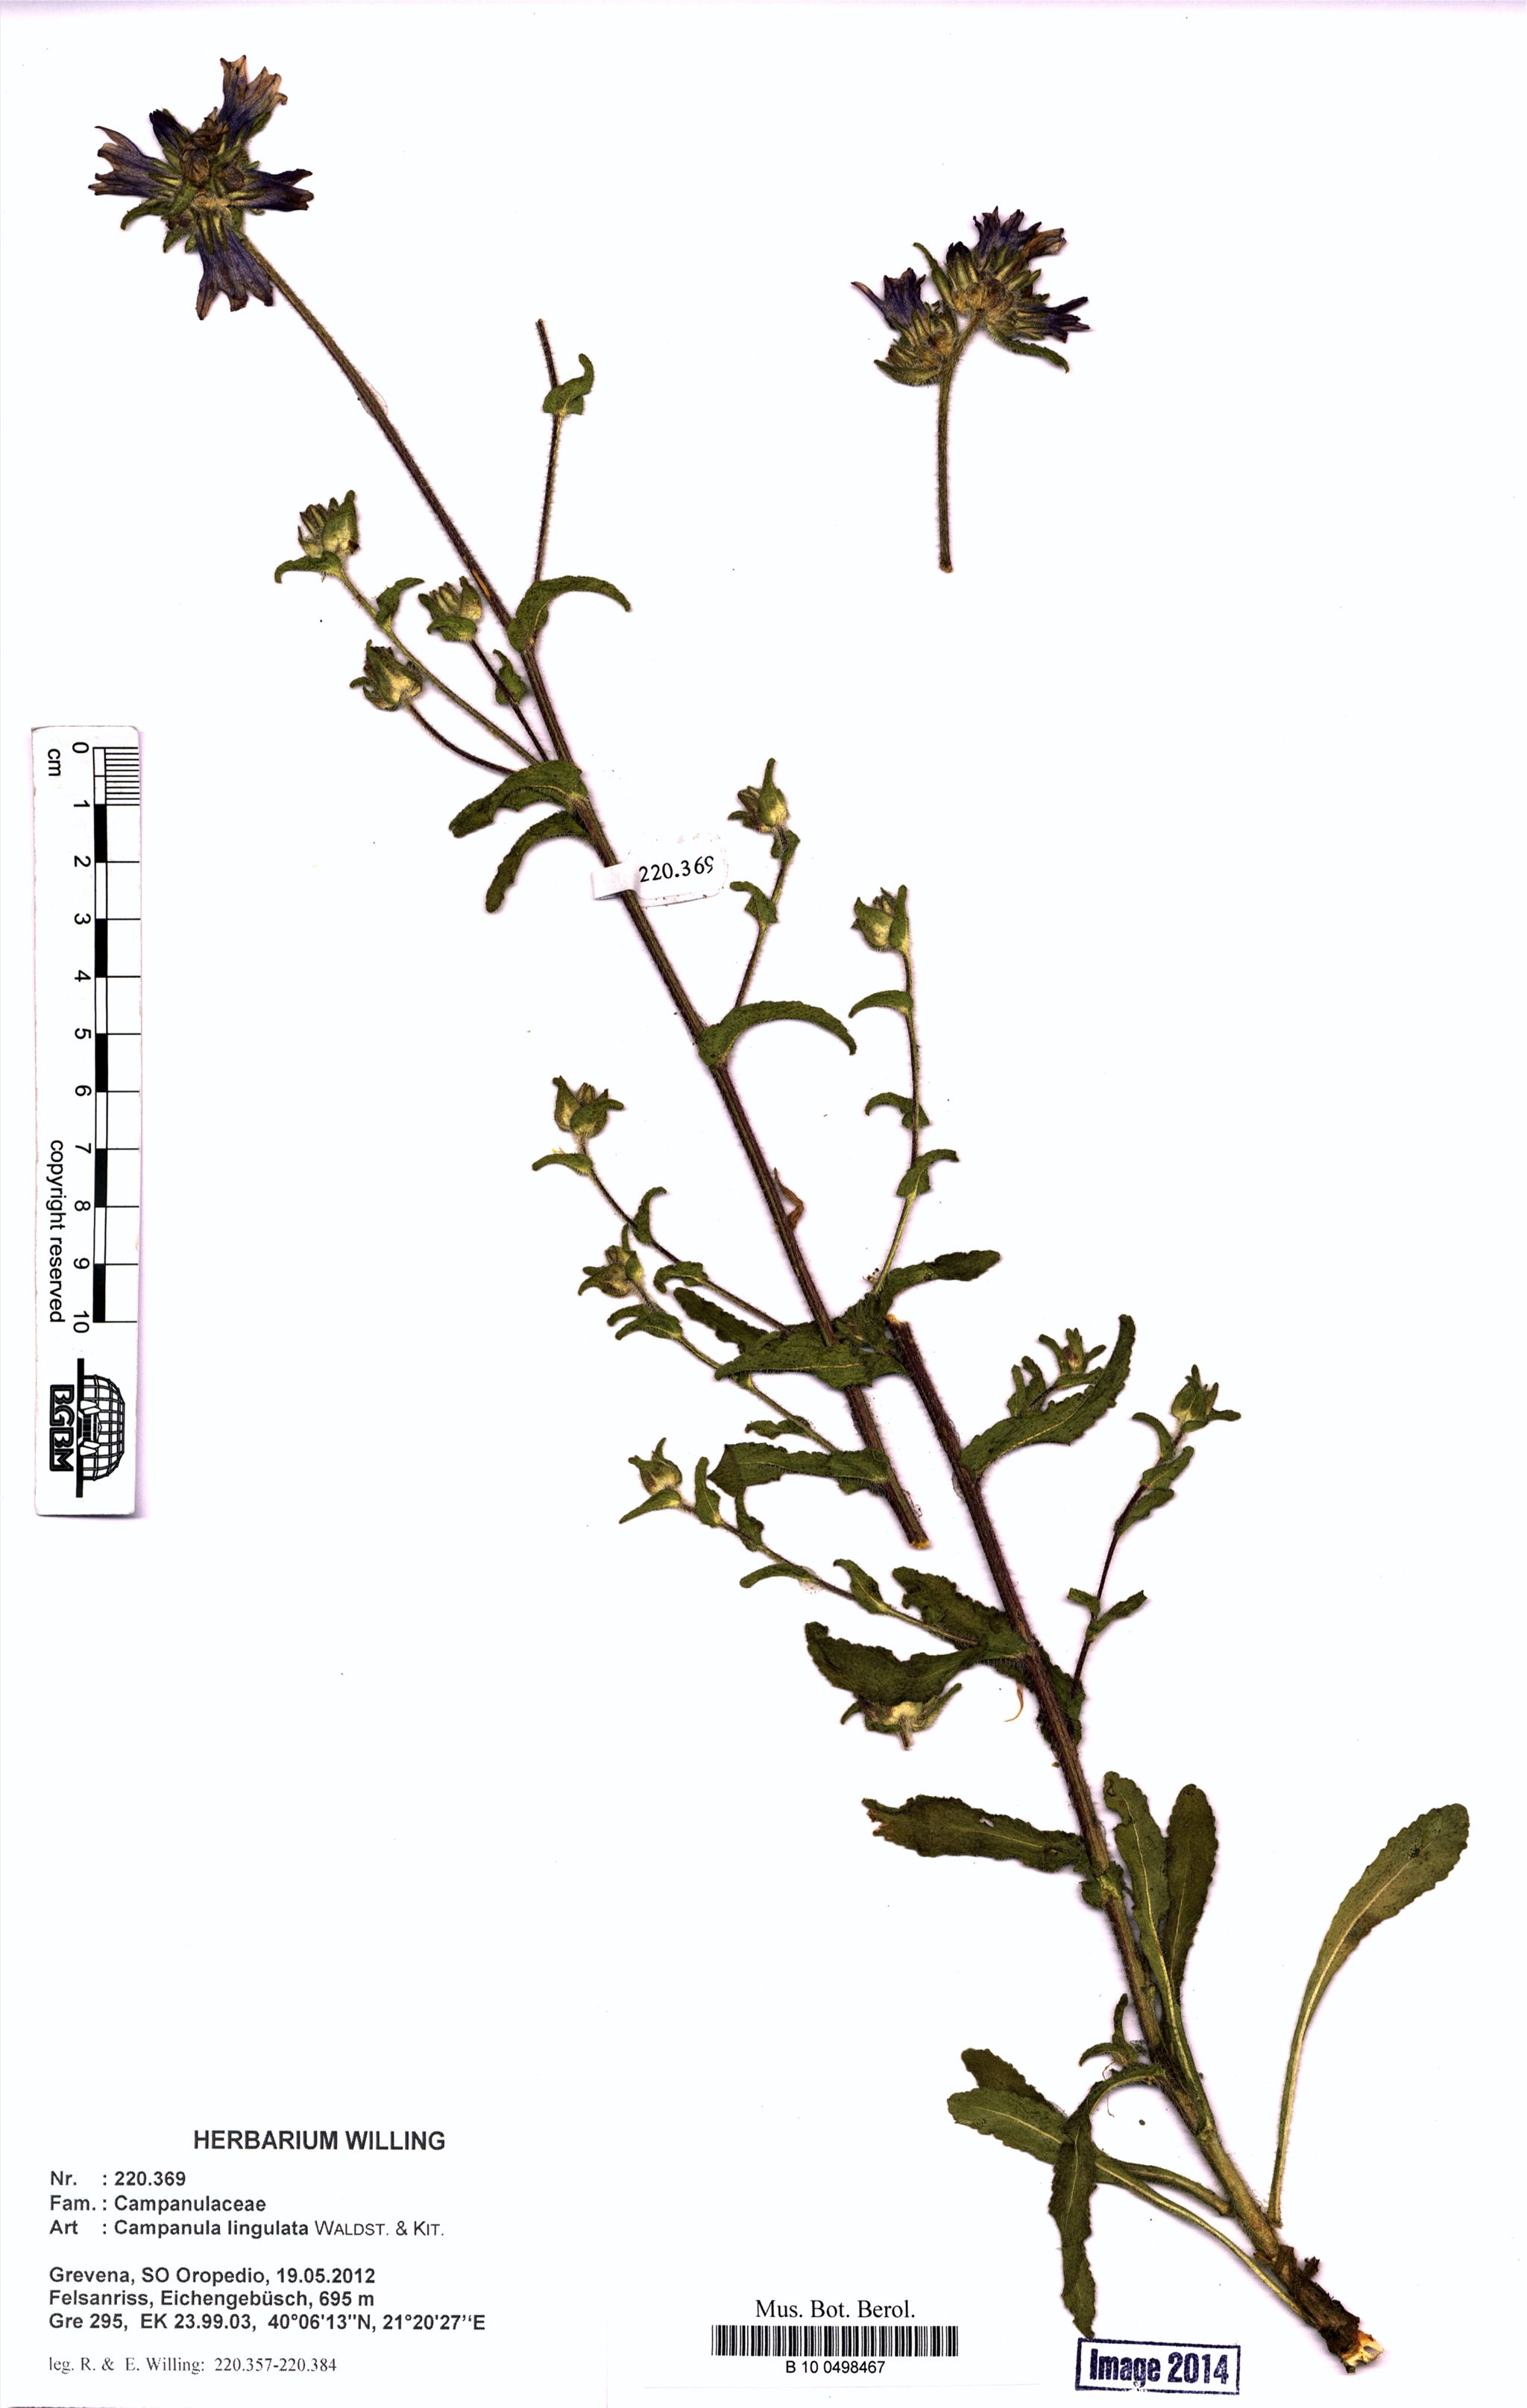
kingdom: Plantae
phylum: Tracheophyta
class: Magnoliopsida
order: Asterales
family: Campanulaceae
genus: Campanula
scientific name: Campanula lingulata
